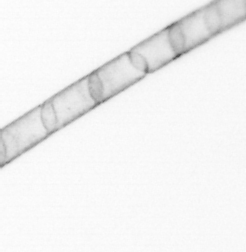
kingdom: Chromista
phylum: Ochrophyta
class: Bacillariophyceae
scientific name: Bacillariophyceae
